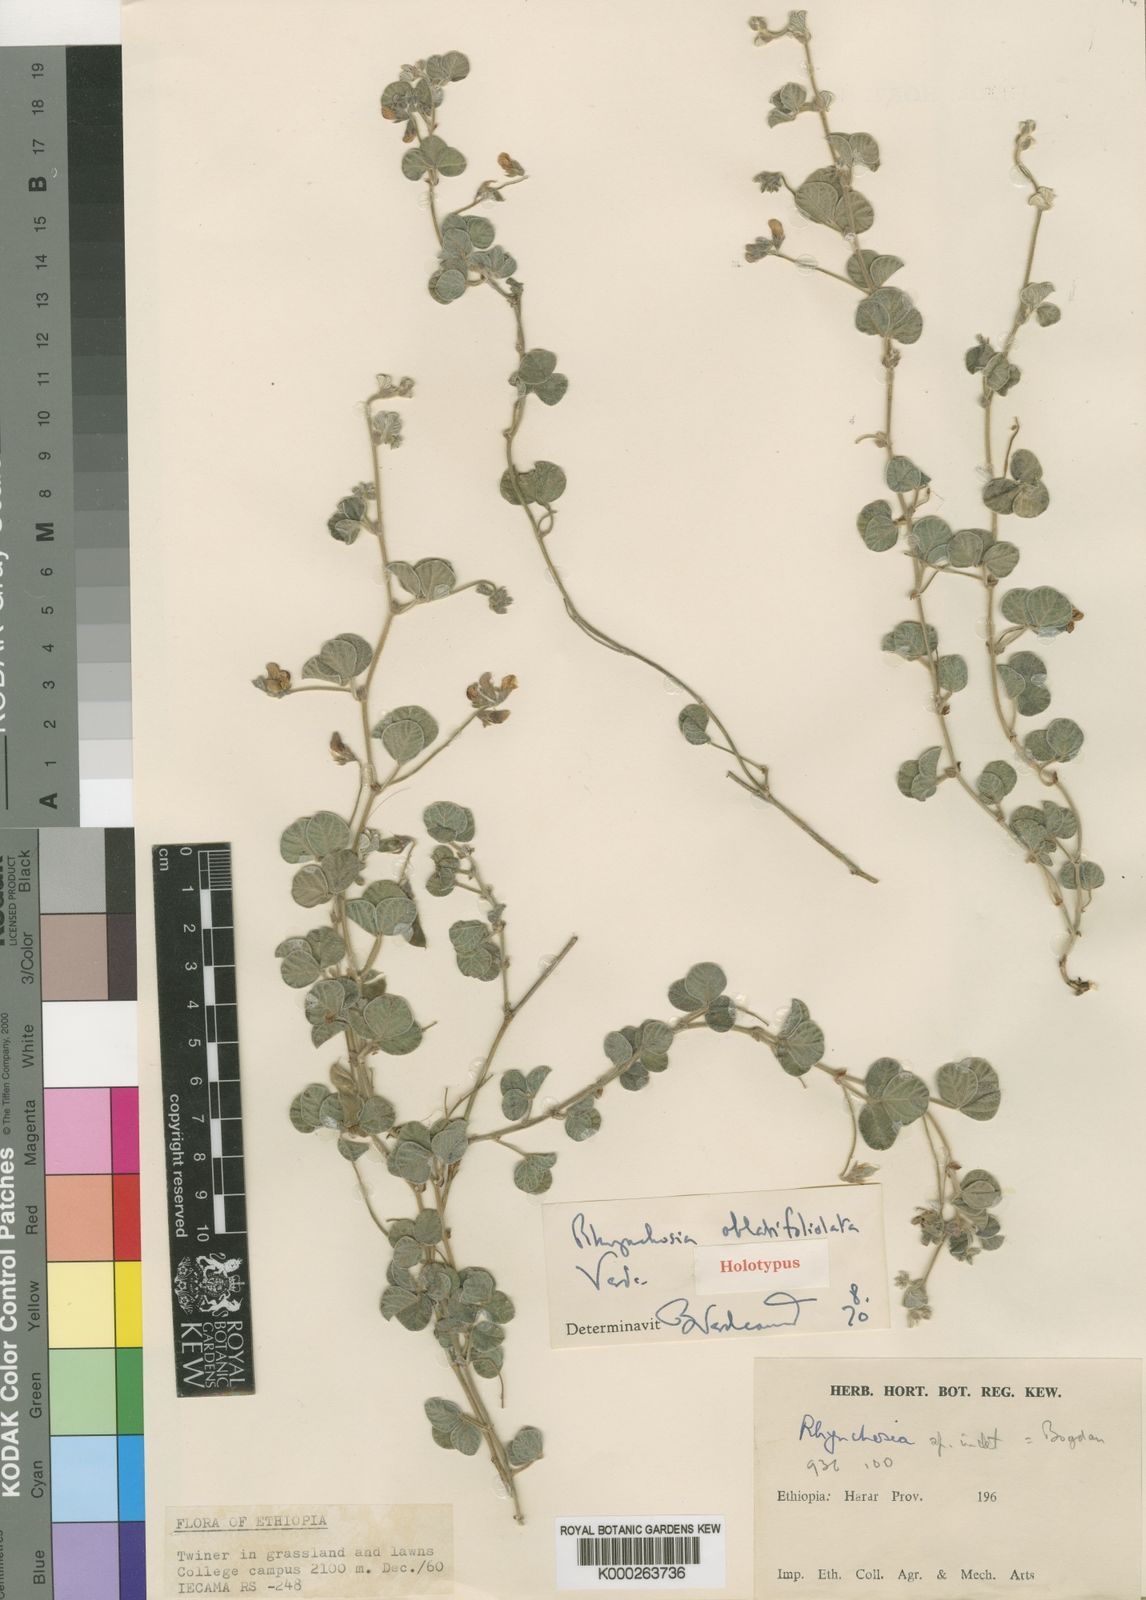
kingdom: Plantae
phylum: Tracheophyta
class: Magnoliopsida
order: Fabales
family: Fabaceae
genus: Rhynchosia
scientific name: Rhynchosia oblatifoliolata
